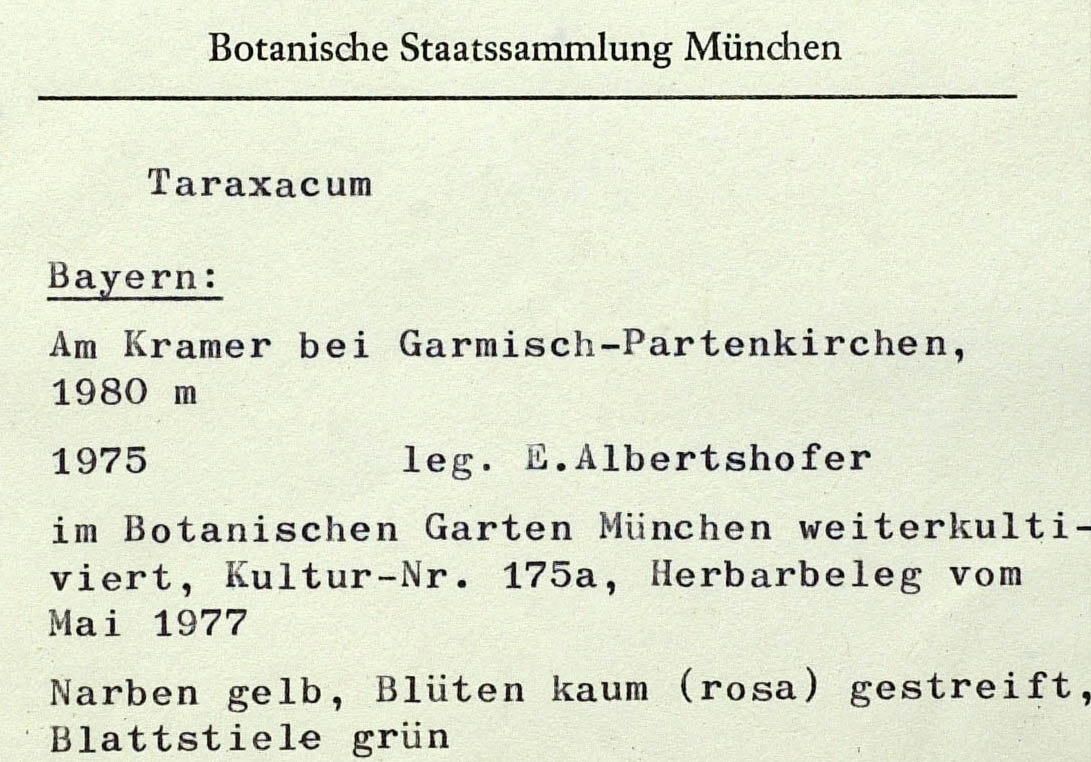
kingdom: Plantae
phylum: Tracheophyta
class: Magnoliopsida
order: Asterales
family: Asteraceae
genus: Taraxacum
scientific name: Taraxacum krameriense
